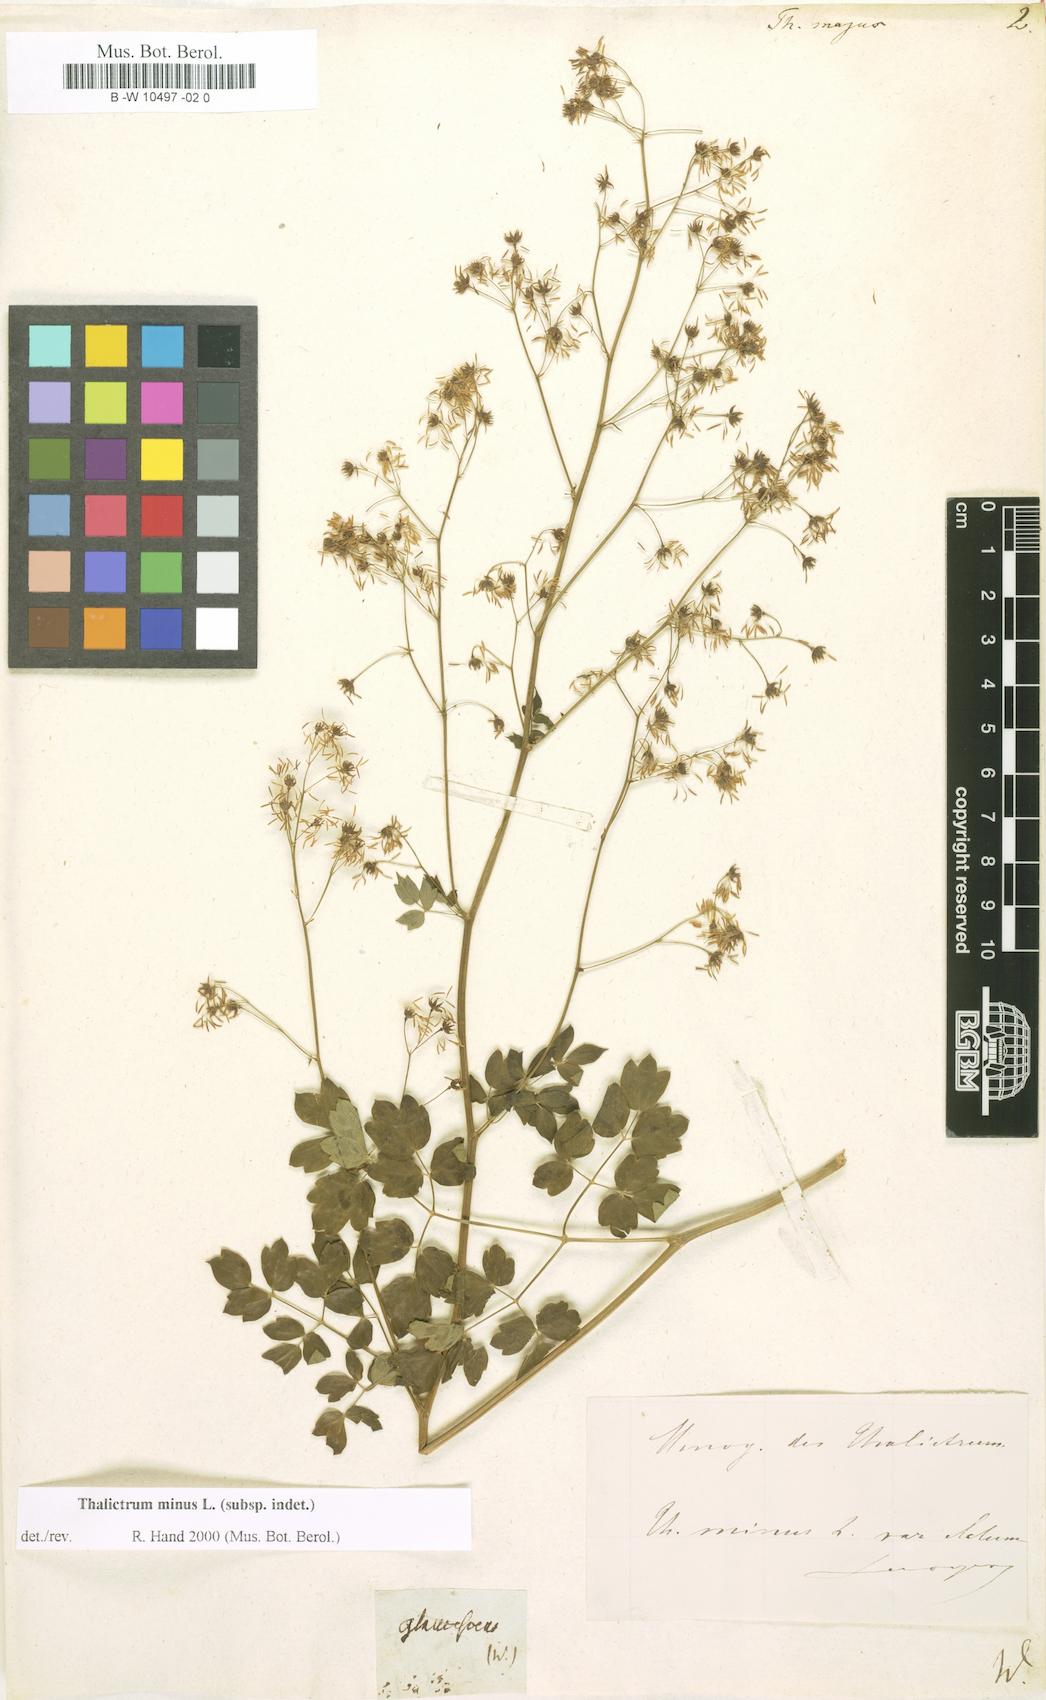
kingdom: Plantae
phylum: Tracheophyta
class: Magnoliopsida
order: Ranunculales
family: Ranunculaceae
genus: Thalictrum
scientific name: Thalictrum majus
